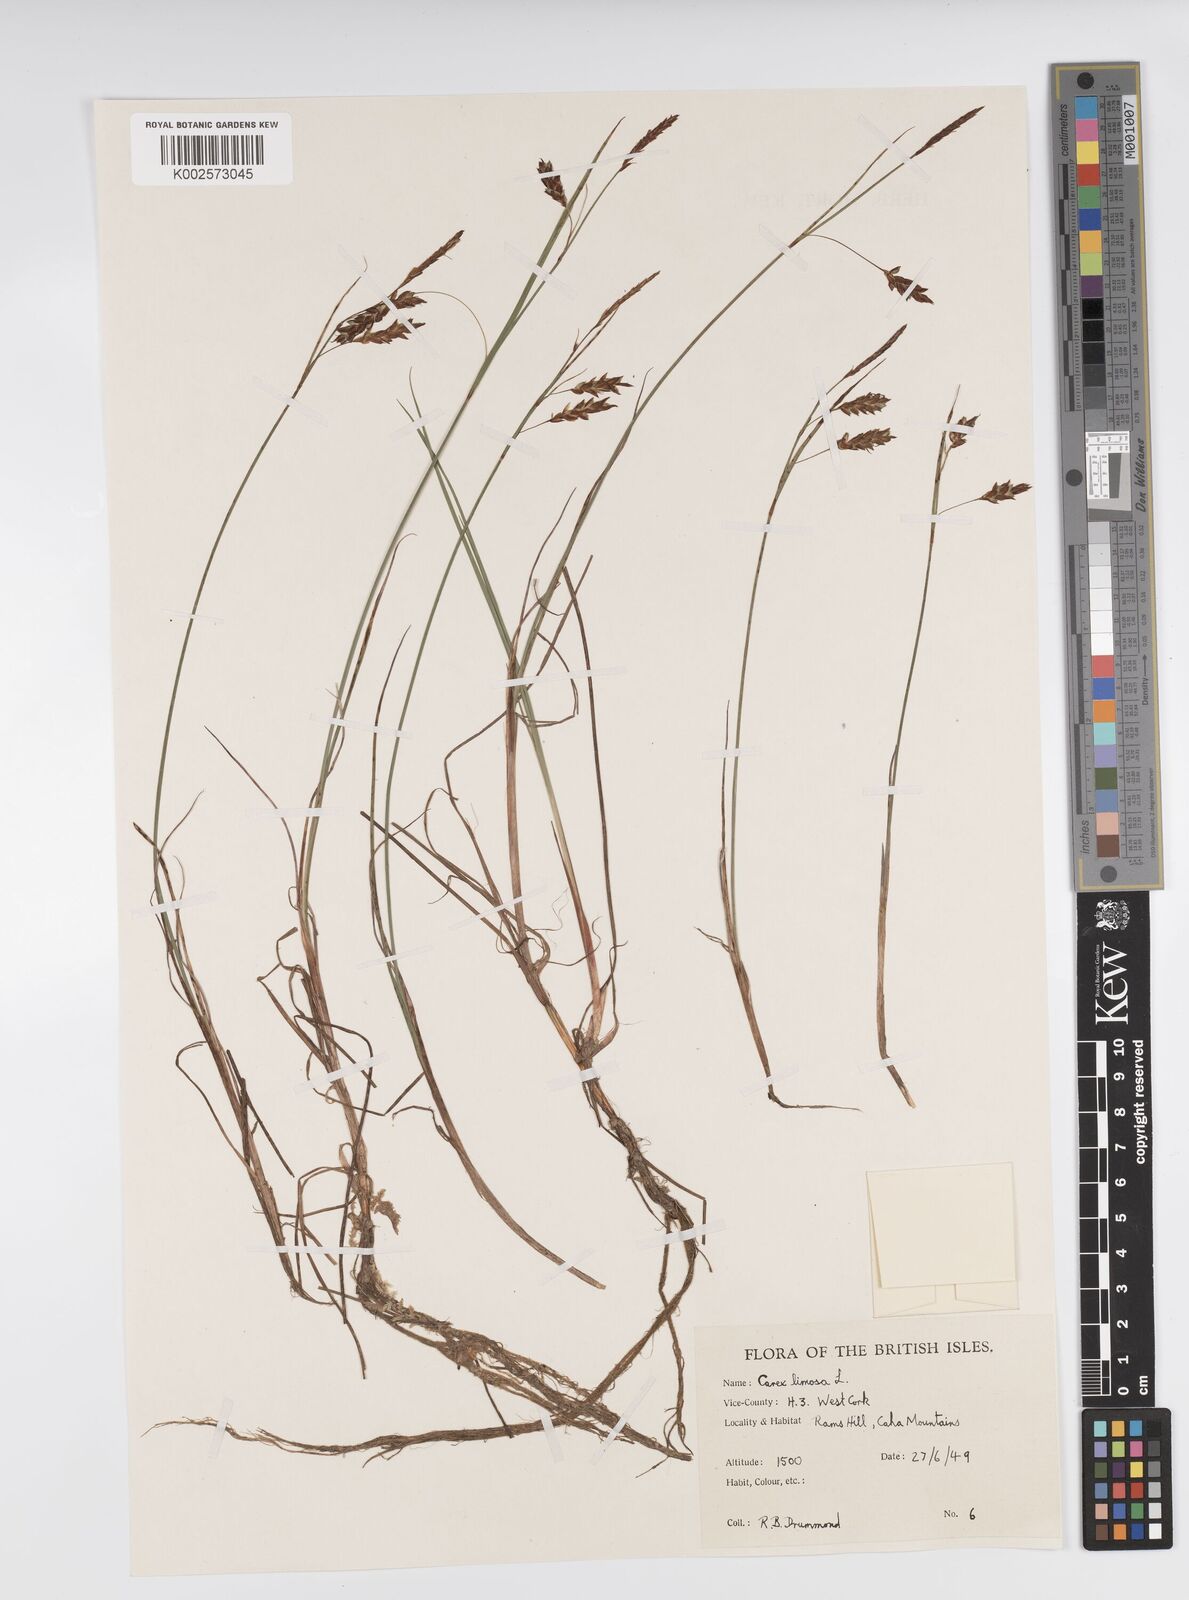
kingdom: Plantae
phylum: Tracheophyta
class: Liliopsida
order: Poales
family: Cyperaceae
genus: Carex
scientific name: Carex limosa
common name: Bog sedge
